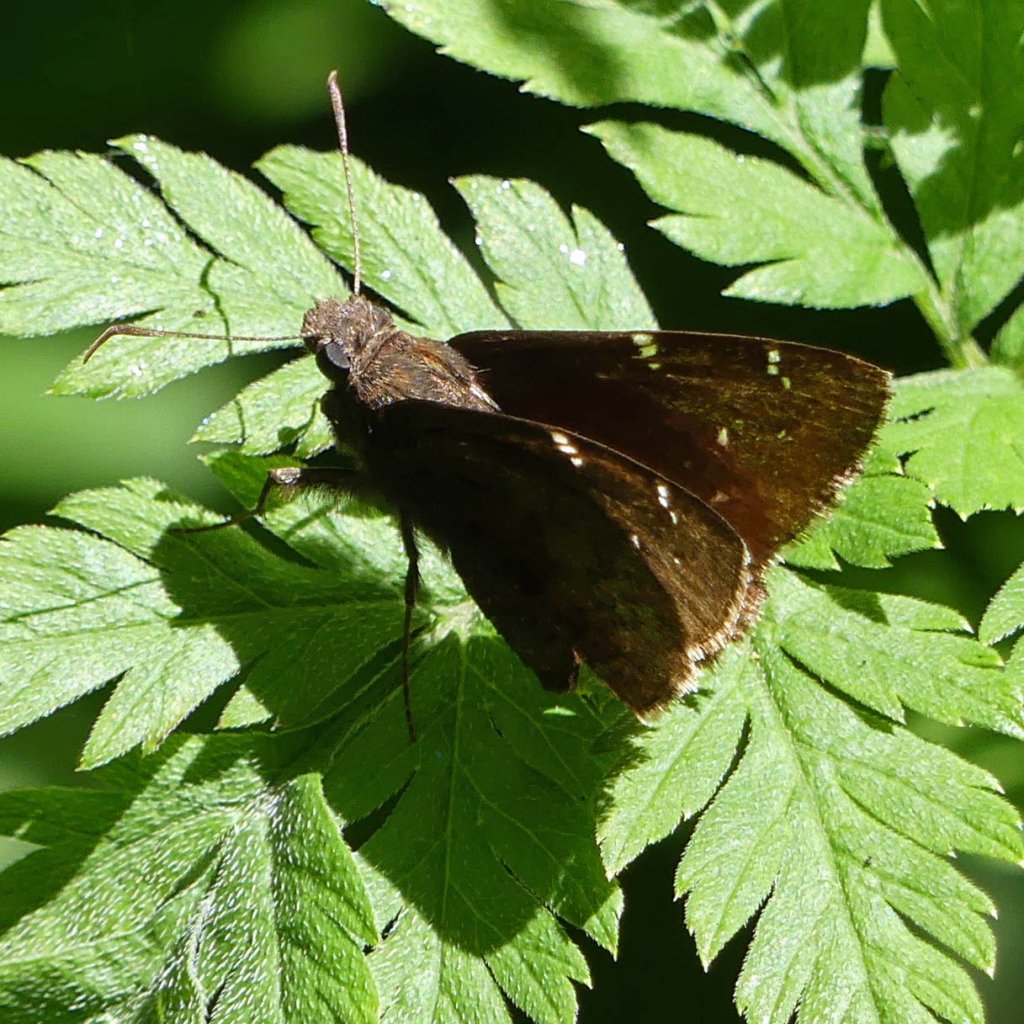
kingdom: Animalia
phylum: Arthropoda
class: Insecta
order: Lepidoptera
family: Hesperiidae
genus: Autochton
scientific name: Autochton
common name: Northern Cloudywing
